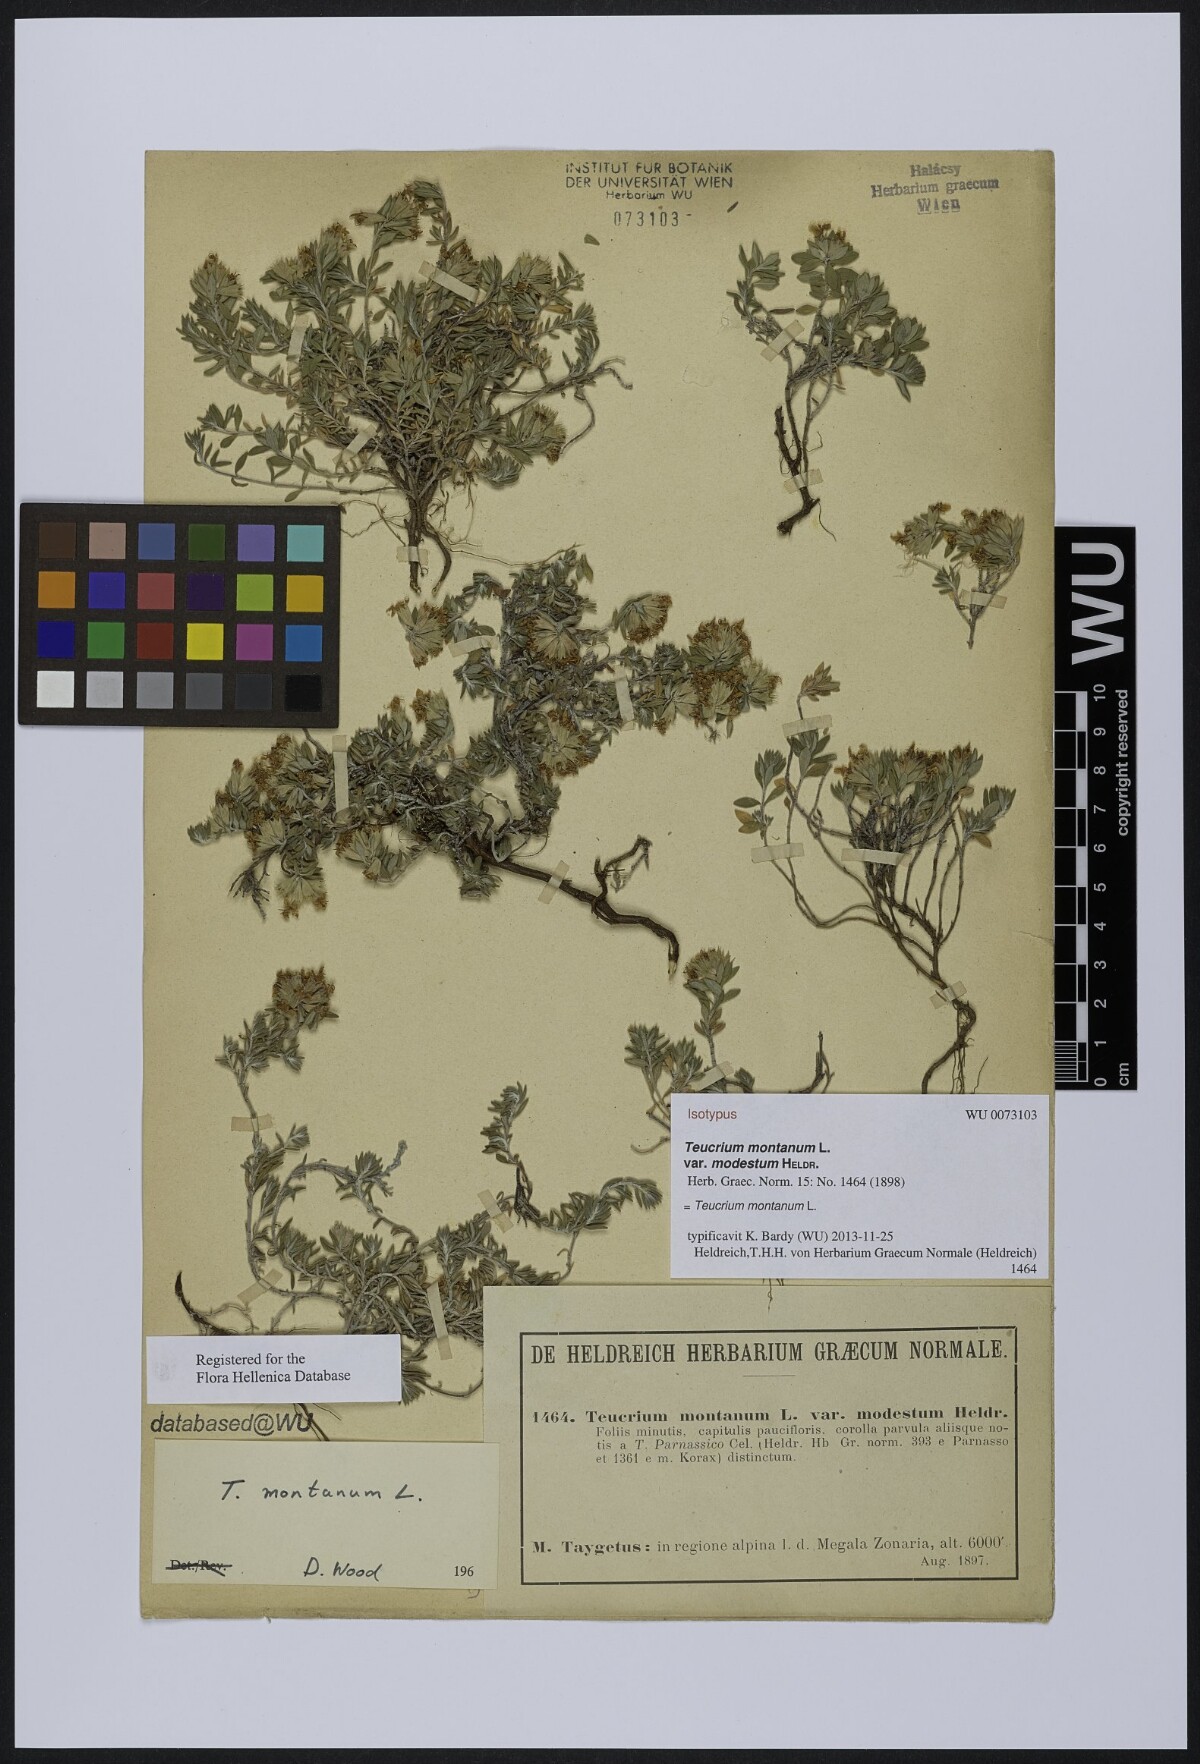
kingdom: Plantae
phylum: Tracheophyta
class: Magnoliopsida
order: Lamiales
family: Lamiaceae
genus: Teucrium
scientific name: Teucrium montanum
